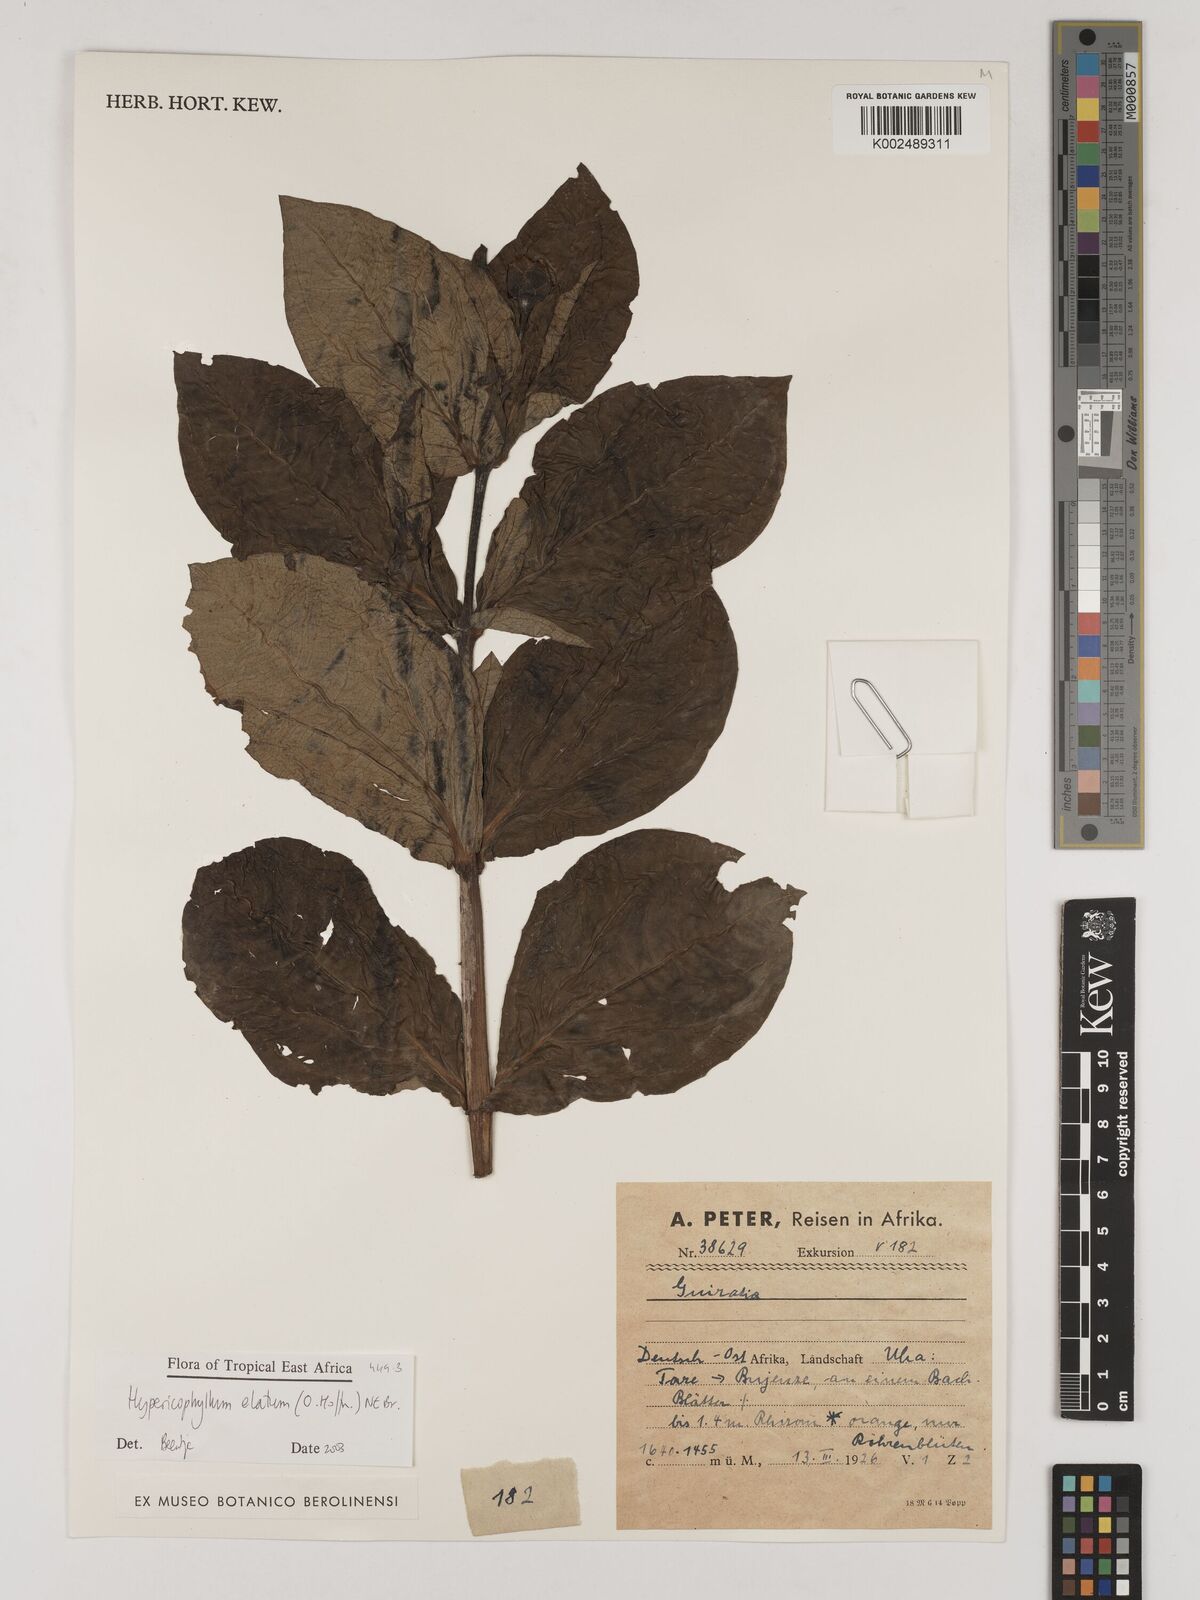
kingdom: Plantae
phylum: Tracheophyta
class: Magnoliopsida
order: Asterales
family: Asteraceae
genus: Hypericophyllum
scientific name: Hypericophyllum elatum
